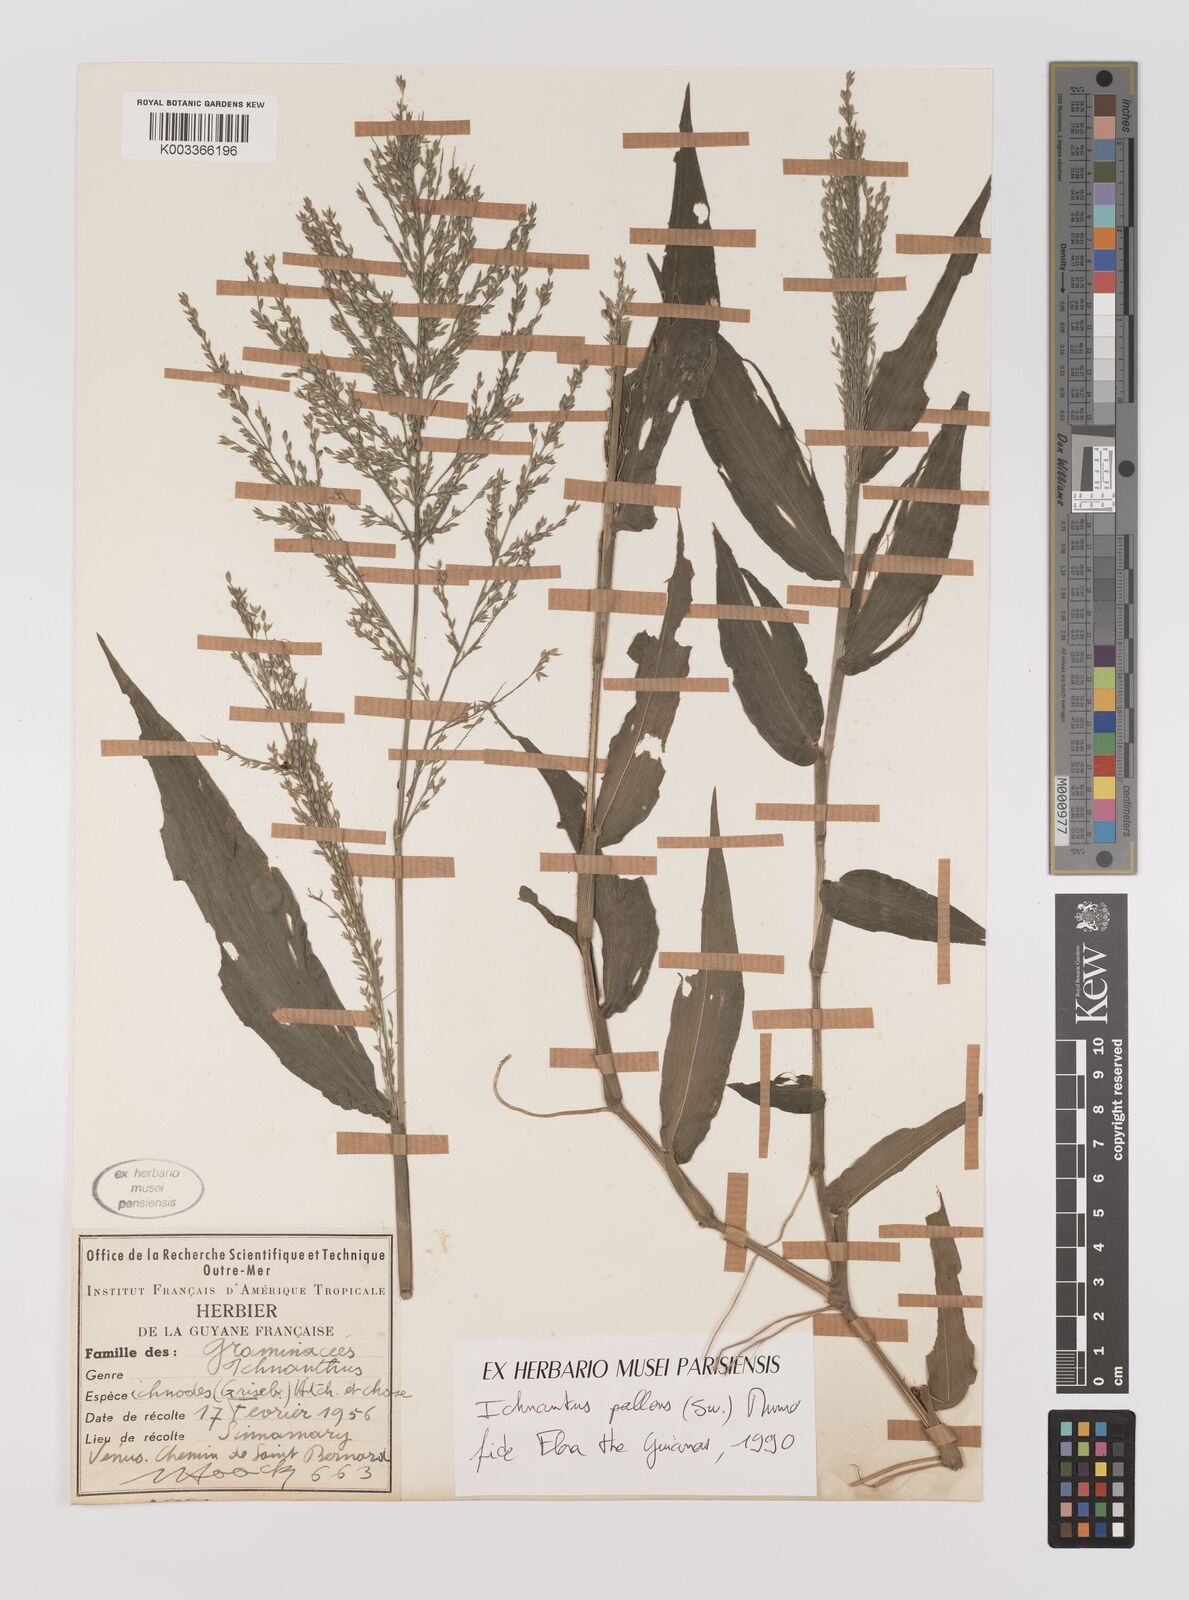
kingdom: Plantae
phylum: Tracheophyta
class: Liliopsida
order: Poales
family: Poaceae
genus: Ichnanthus
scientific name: Ichnanthus pallens
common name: Water grass
